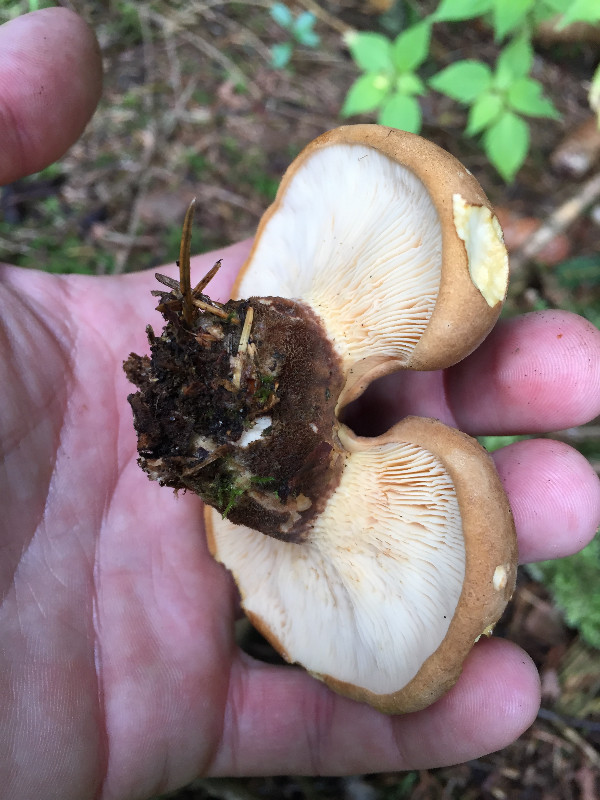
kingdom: Fungi
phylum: Basidiomycota
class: Agaricomycetes
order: Boletales
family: Tapinellaceae
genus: Tapinella
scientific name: Tapinella atrotomentosa
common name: sortfiltet viftesvamp
